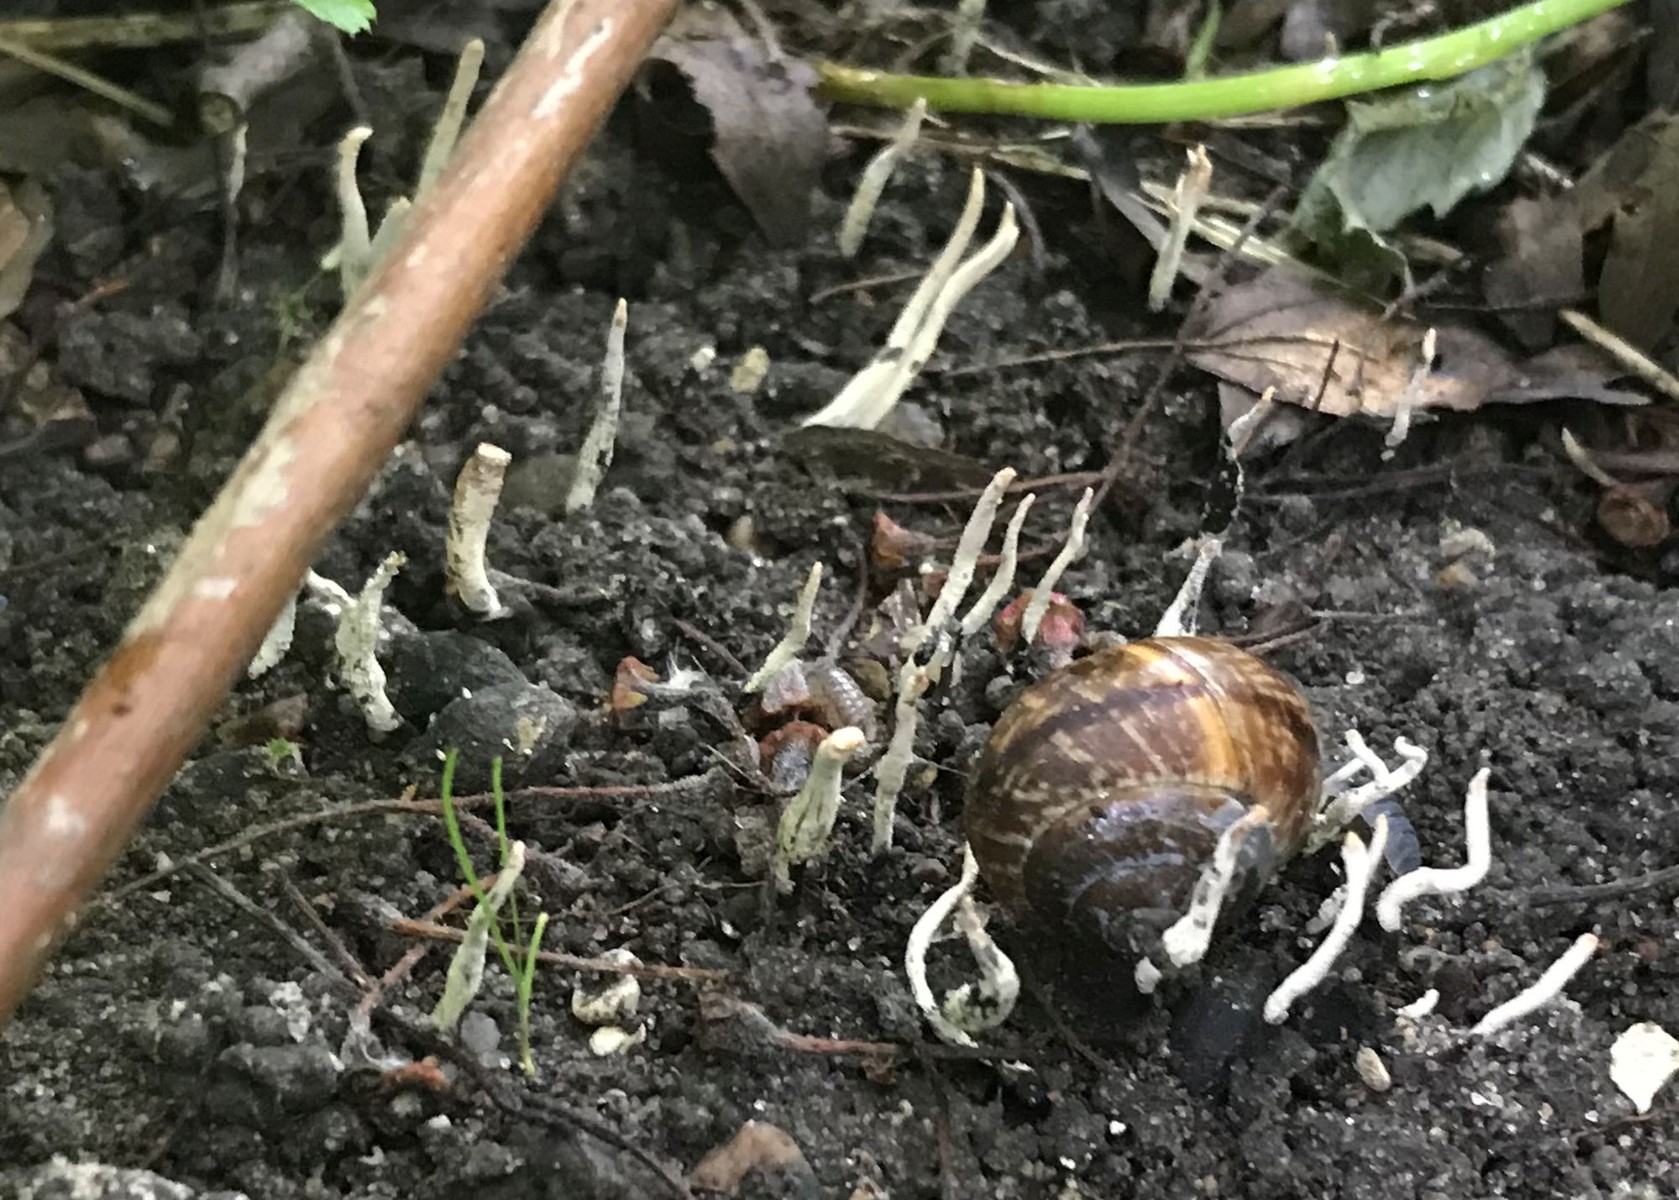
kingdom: Fungi
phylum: Ascomycota
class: Sordariomycetes
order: Xylariales
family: Xylariaceae
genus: Xylaria
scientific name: Xylaria oxyacanthae
